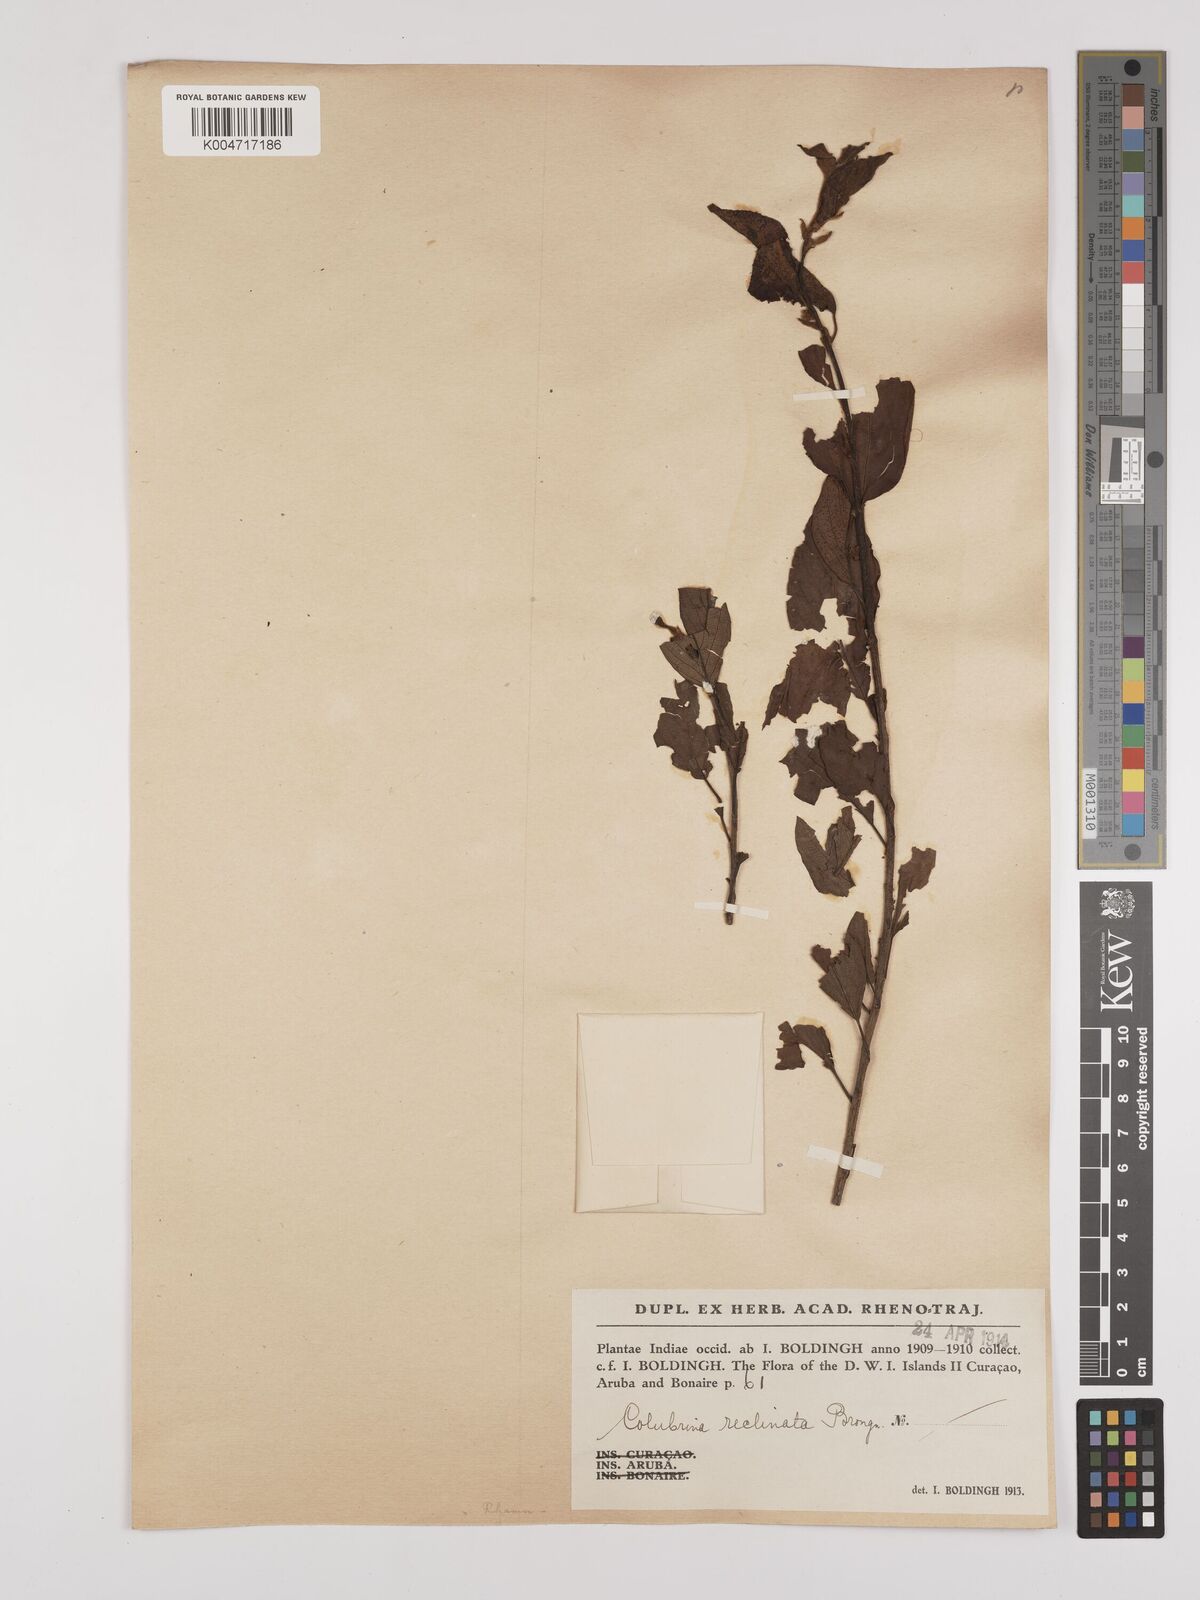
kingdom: Plantae
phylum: Tracheophyta
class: Magnoliopsida
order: Rosales
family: Rhamnaceae
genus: Colubrina
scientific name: Colubrina elliptica
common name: Soldierwood
